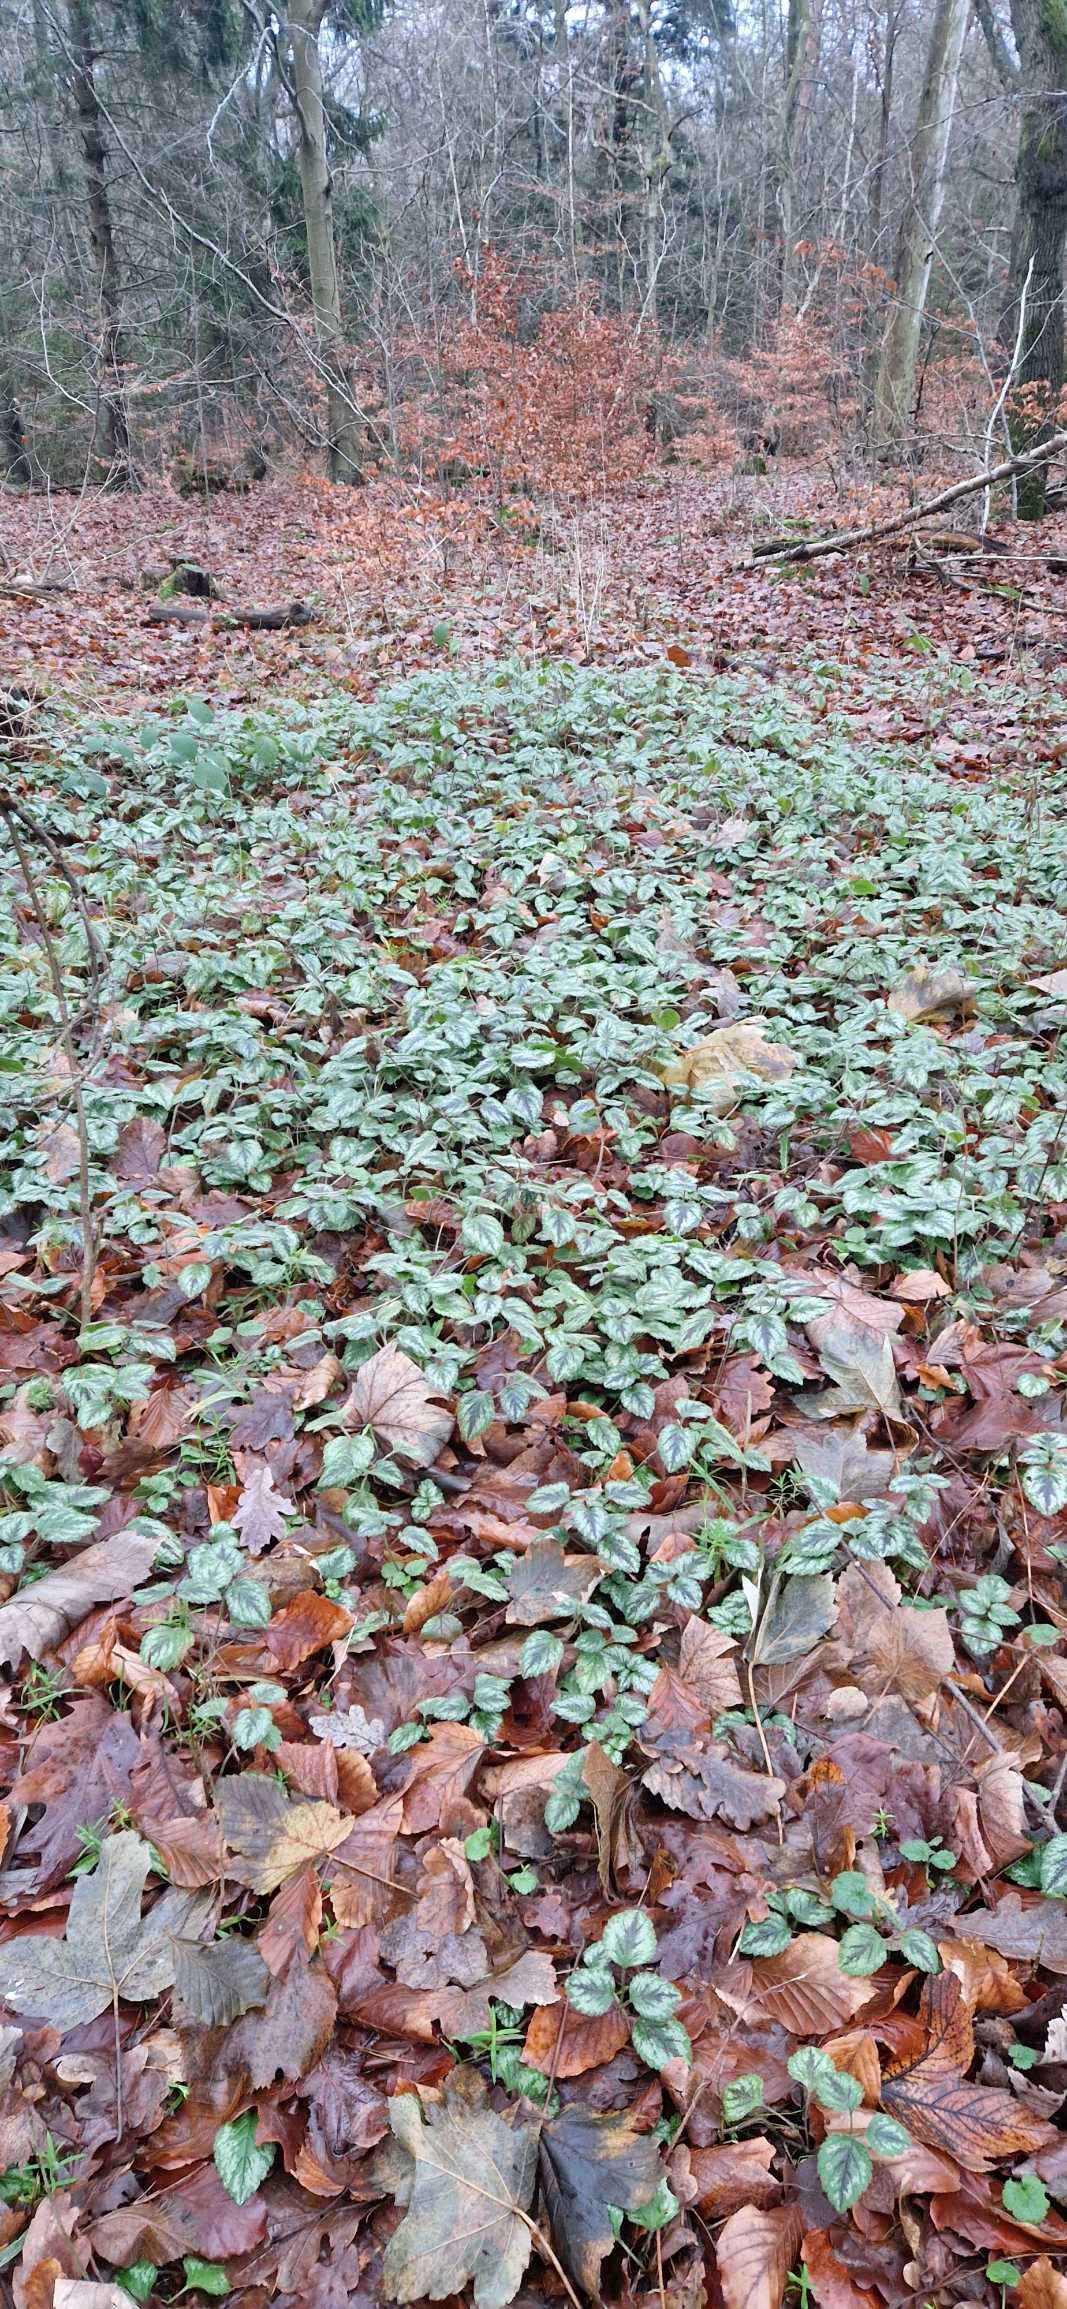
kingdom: Plantae
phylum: Tracheophyta
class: Magnoliopsida
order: Lamiales
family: Lamiaceae
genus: Lamium
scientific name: Lamium galeobdolon
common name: Have-guldnælde
